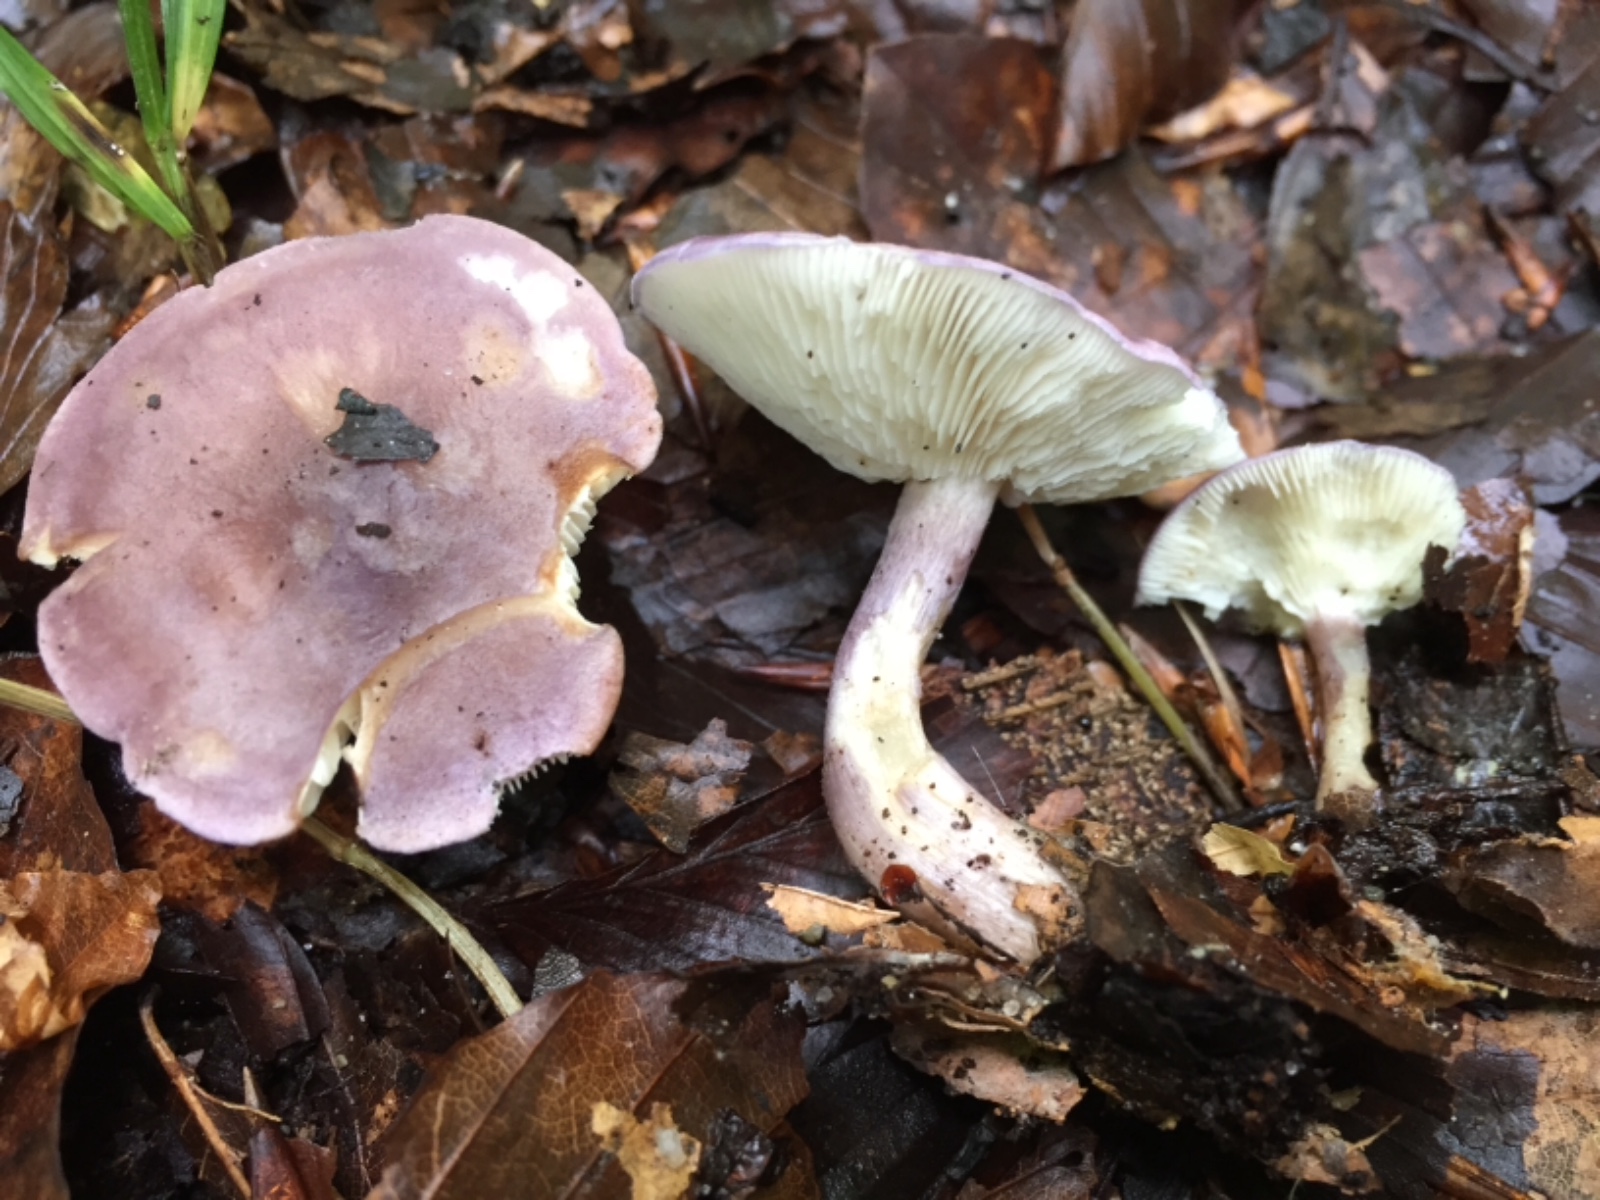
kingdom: Fungi
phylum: Basidiomycota
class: Agaricomycetes
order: Agaricales
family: Lyophyllaceae
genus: Calocybe
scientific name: Calocybe ionides
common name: violblå fagerhat
